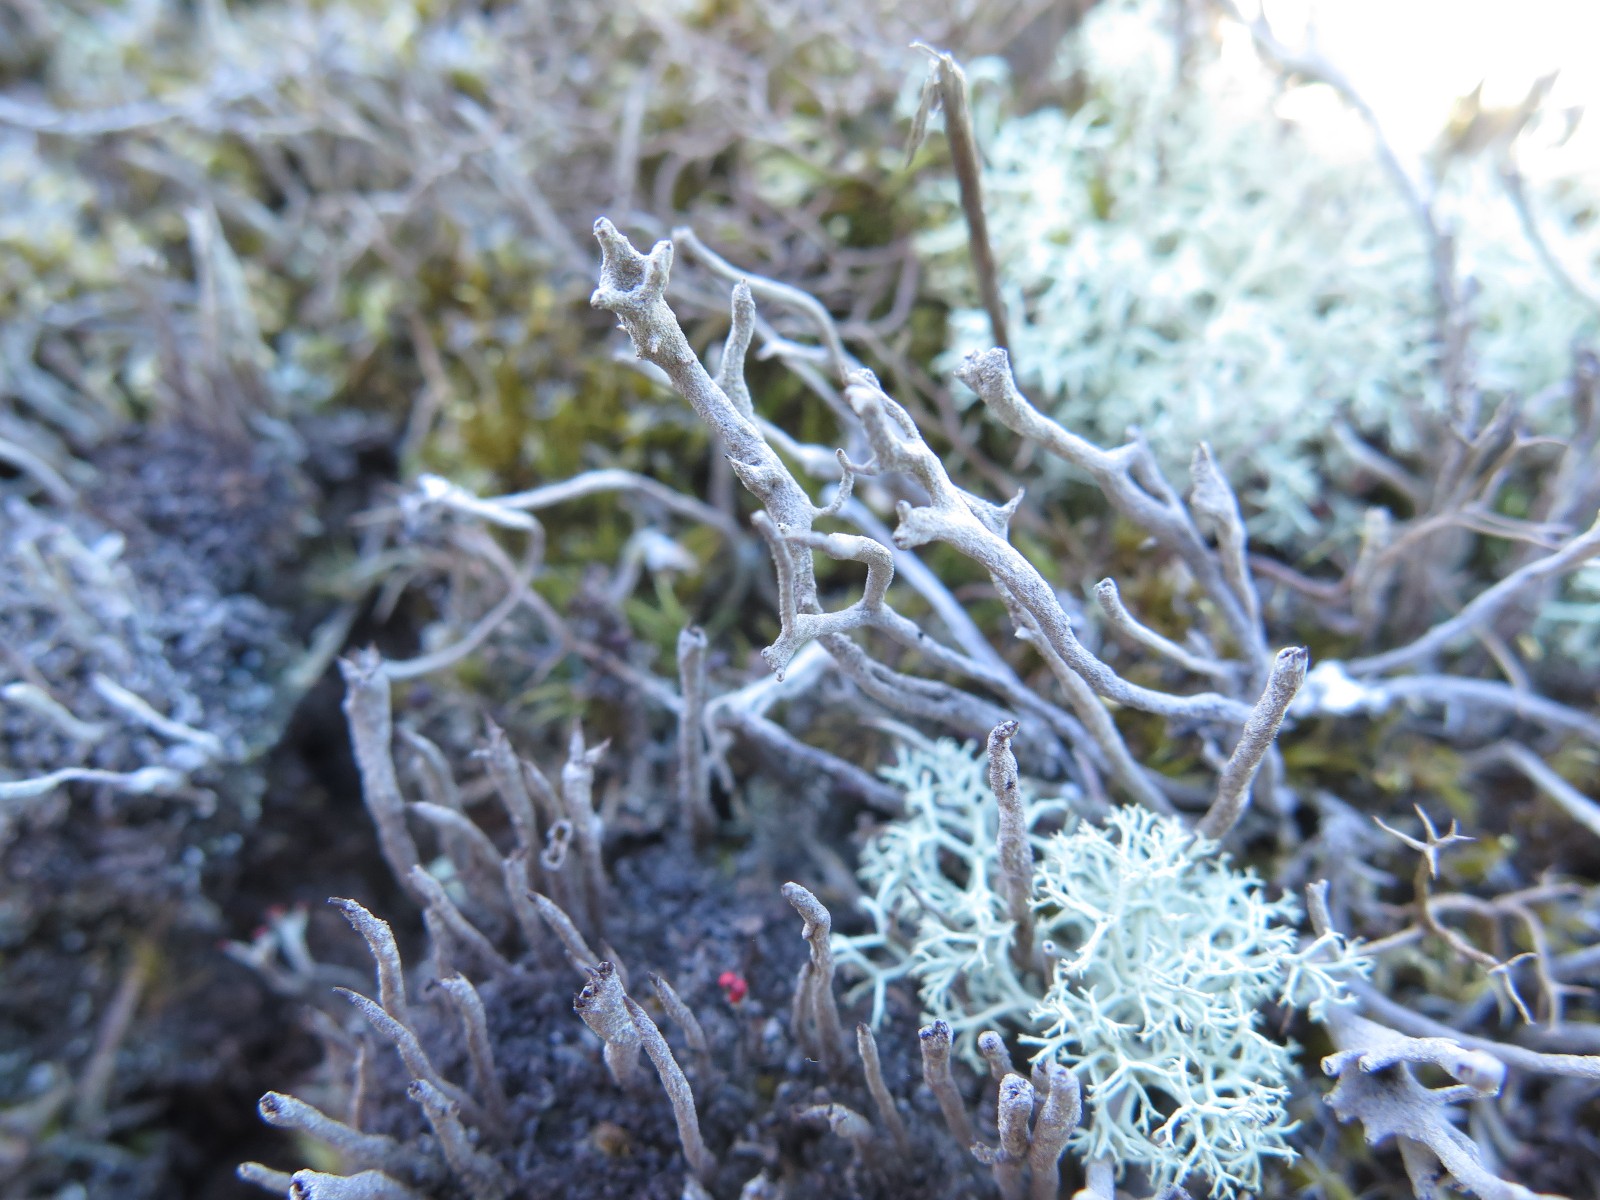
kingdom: Fungi
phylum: Ascomycota
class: Lecanoromycetes
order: Lecanorales
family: Cladoniaceae
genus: Cladonia
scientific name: Cladonia subulata
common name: spids bægerlav
